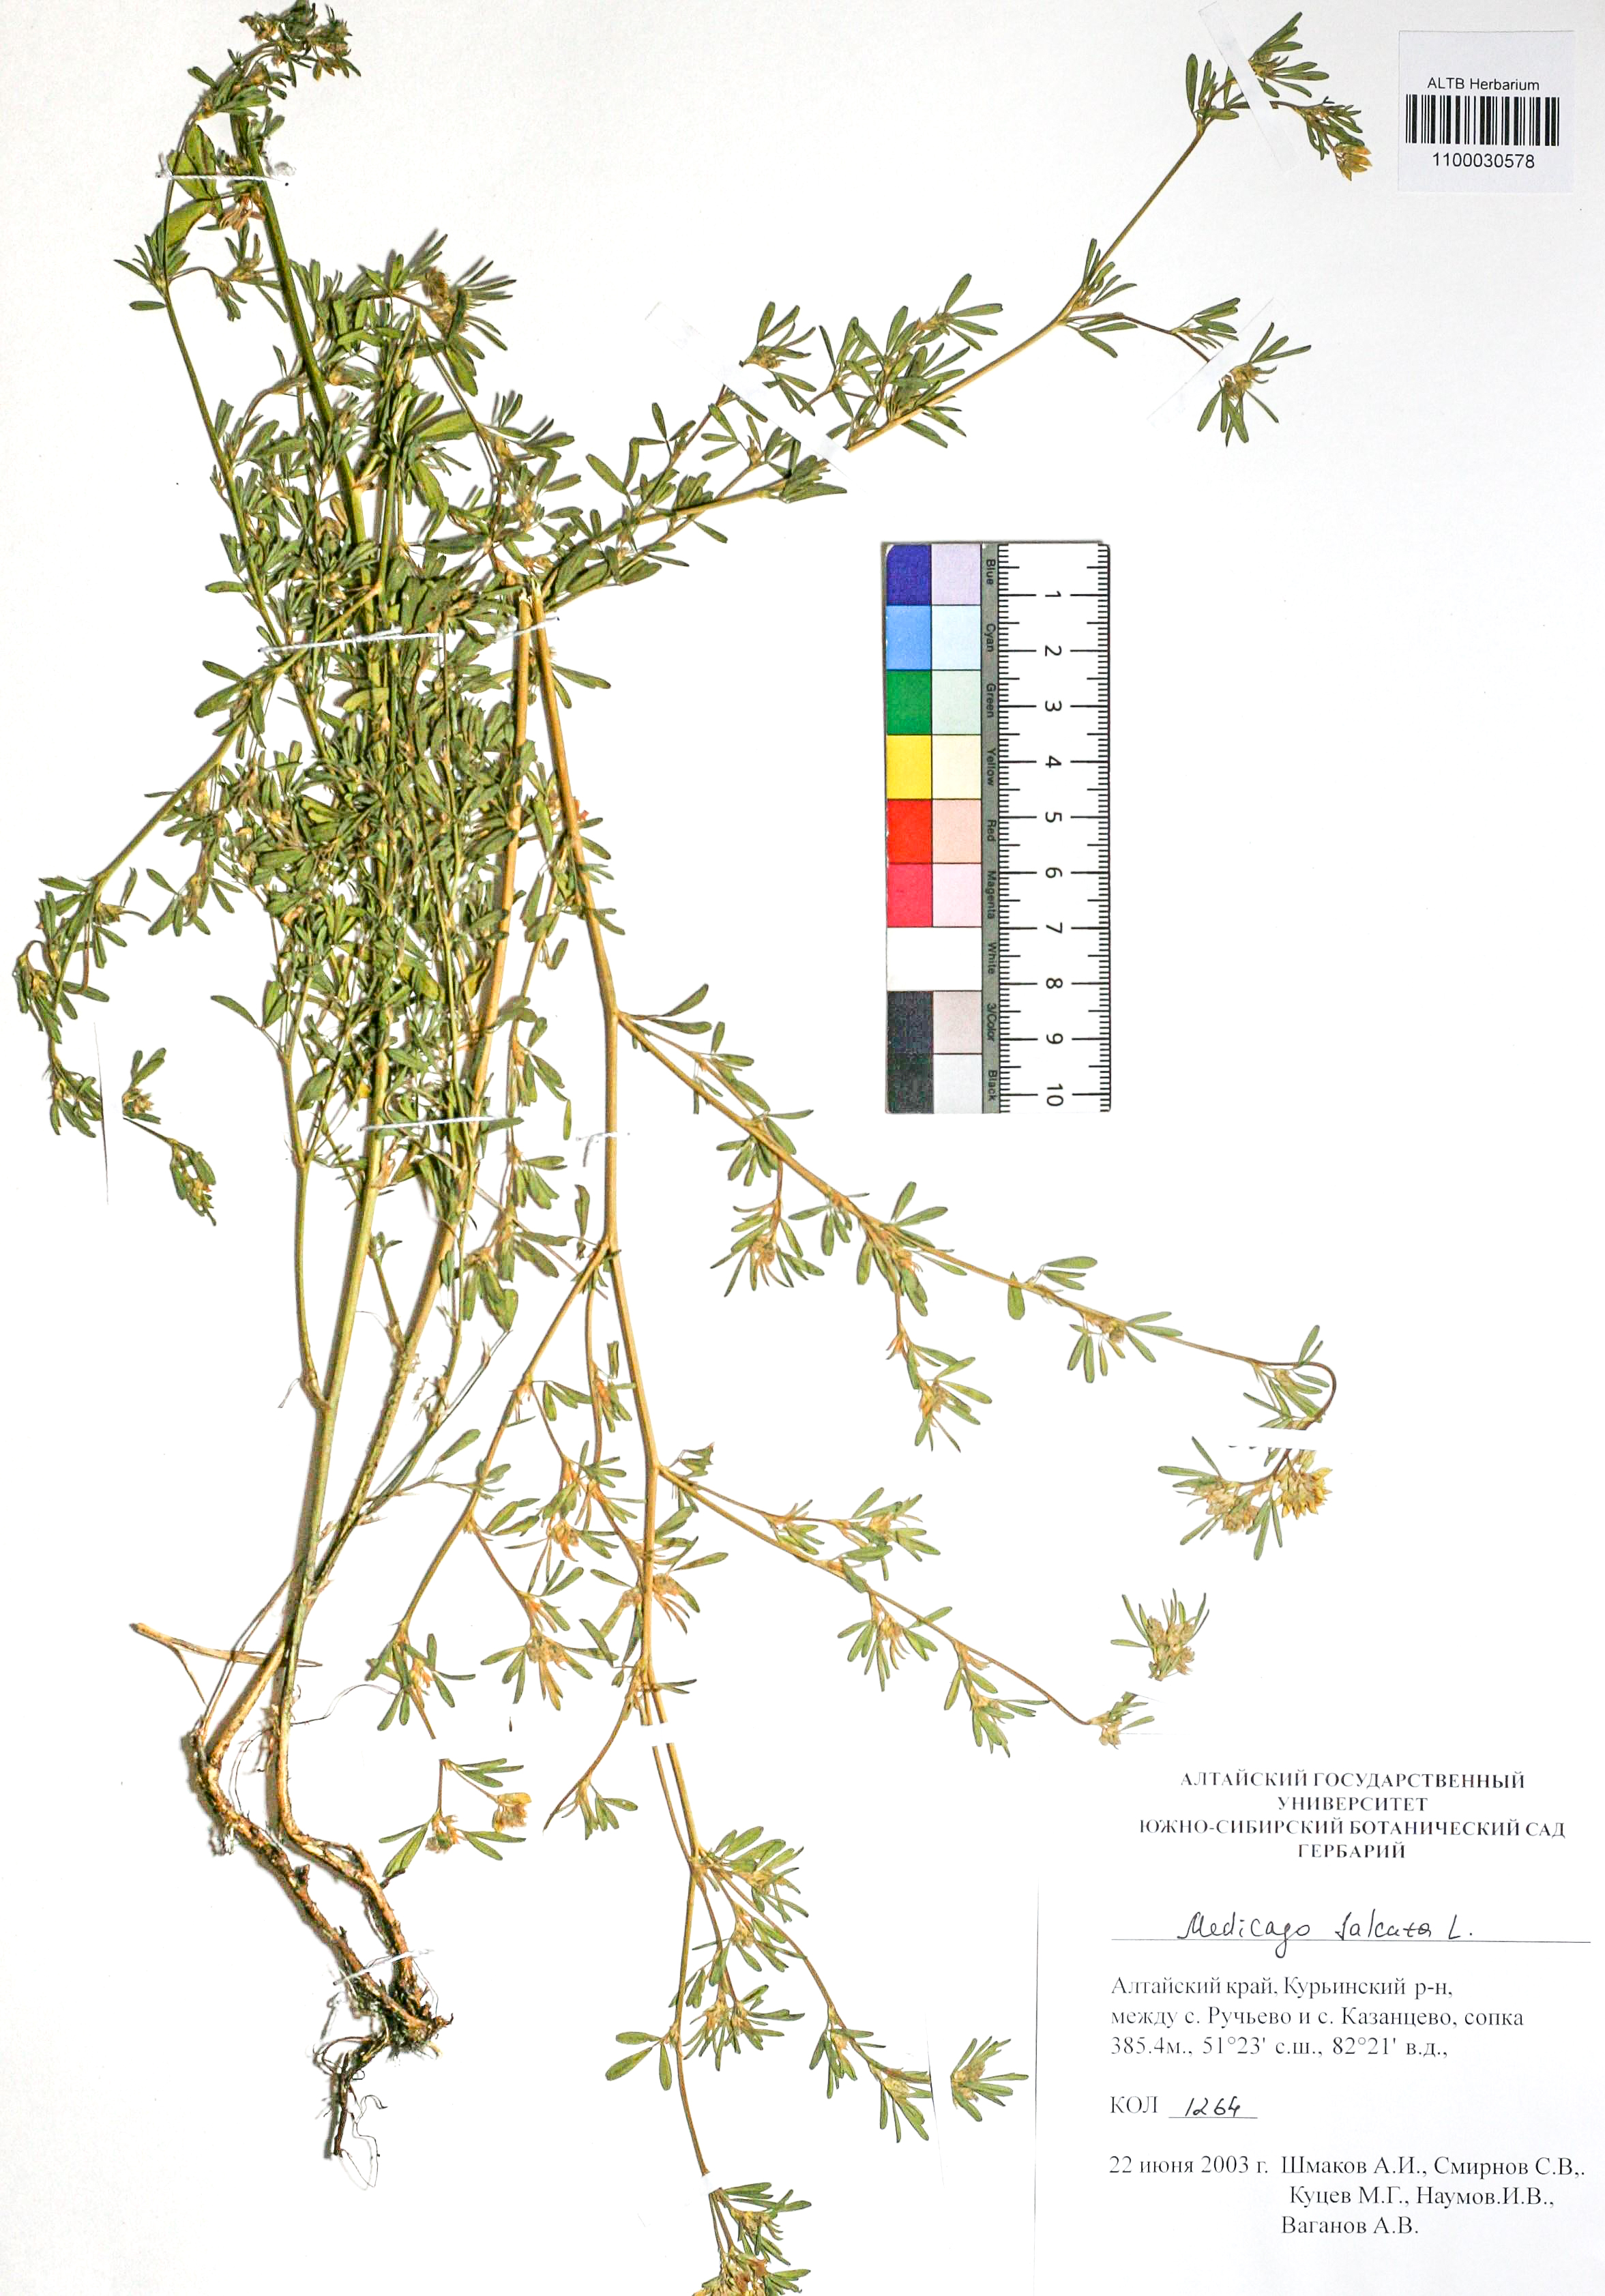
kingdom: Plantae
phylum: Tracheophyta
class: Magnoliopsida
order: Fabales
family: Fabaceae
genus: Medicago
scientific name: Medicago falcata
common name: Sickle medick
